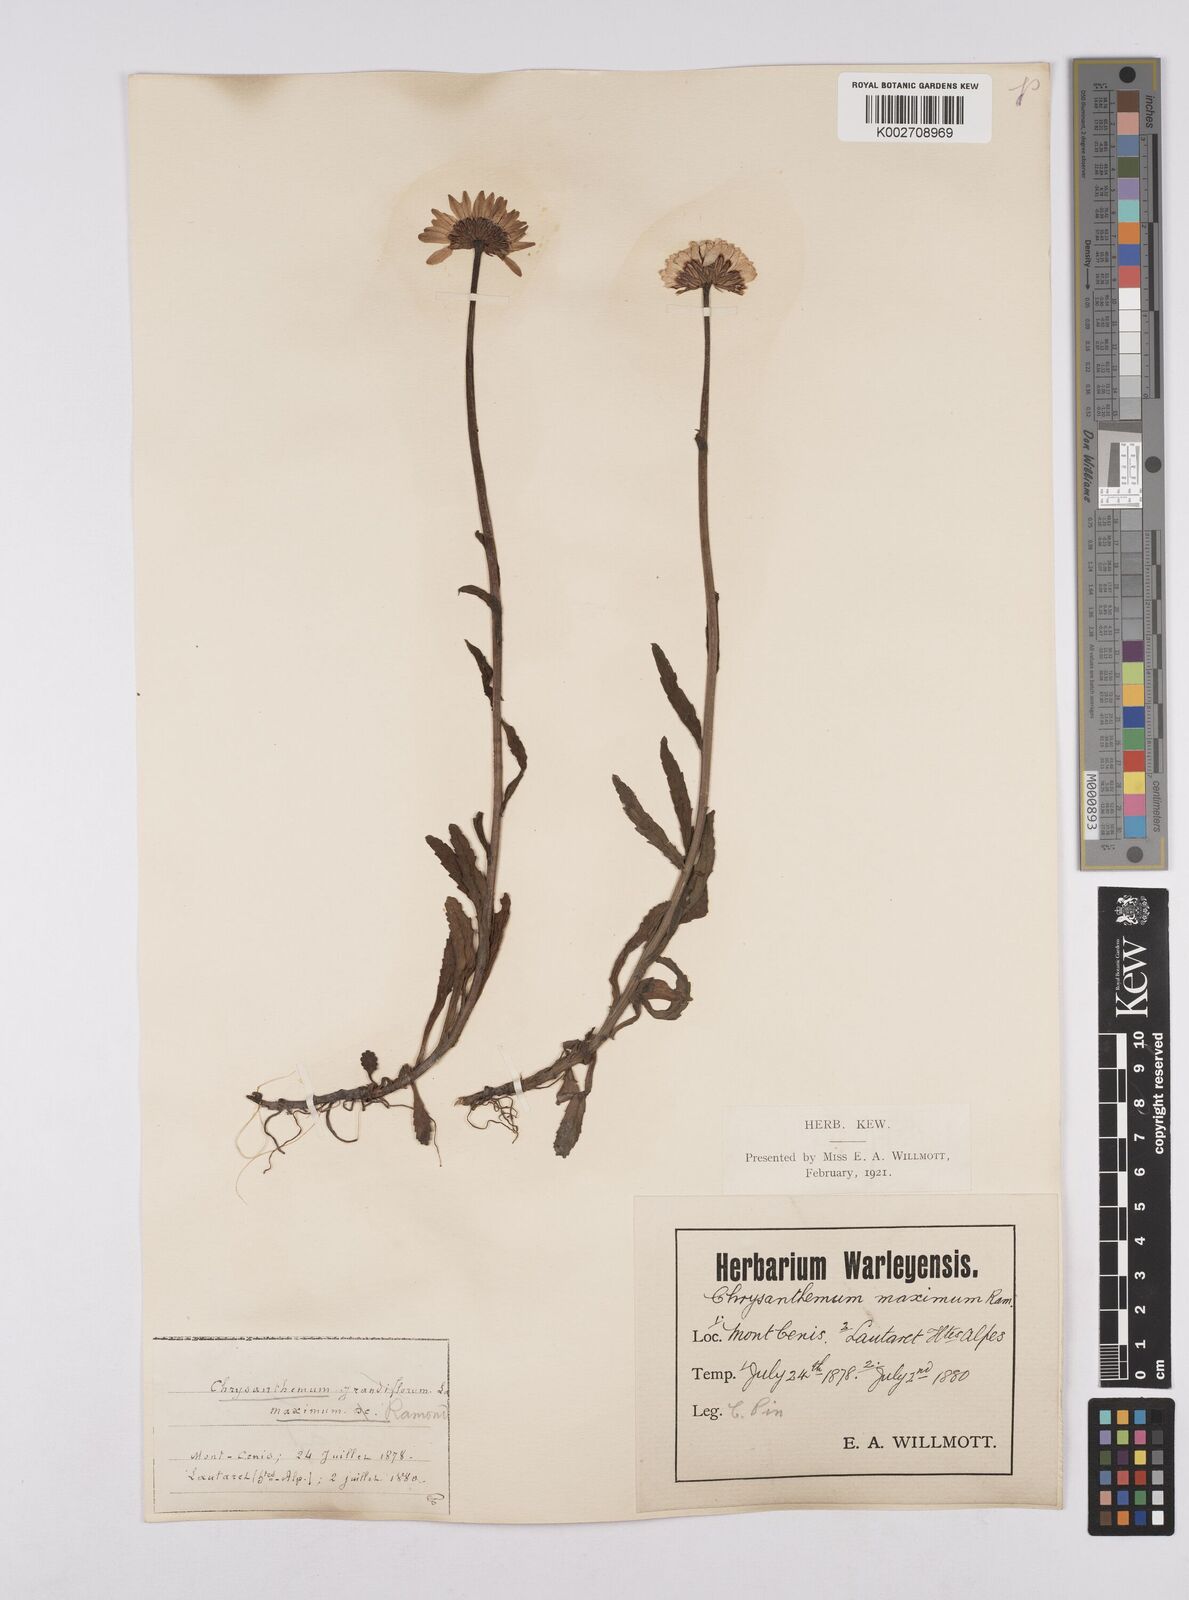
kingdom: Plantae
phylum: Tracheophyta
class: Magnoliopsida
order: Asterales
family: Asteraceae
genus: Leucanthemum
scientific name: Leucanthemum vulgare
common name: Oxeye daisy
